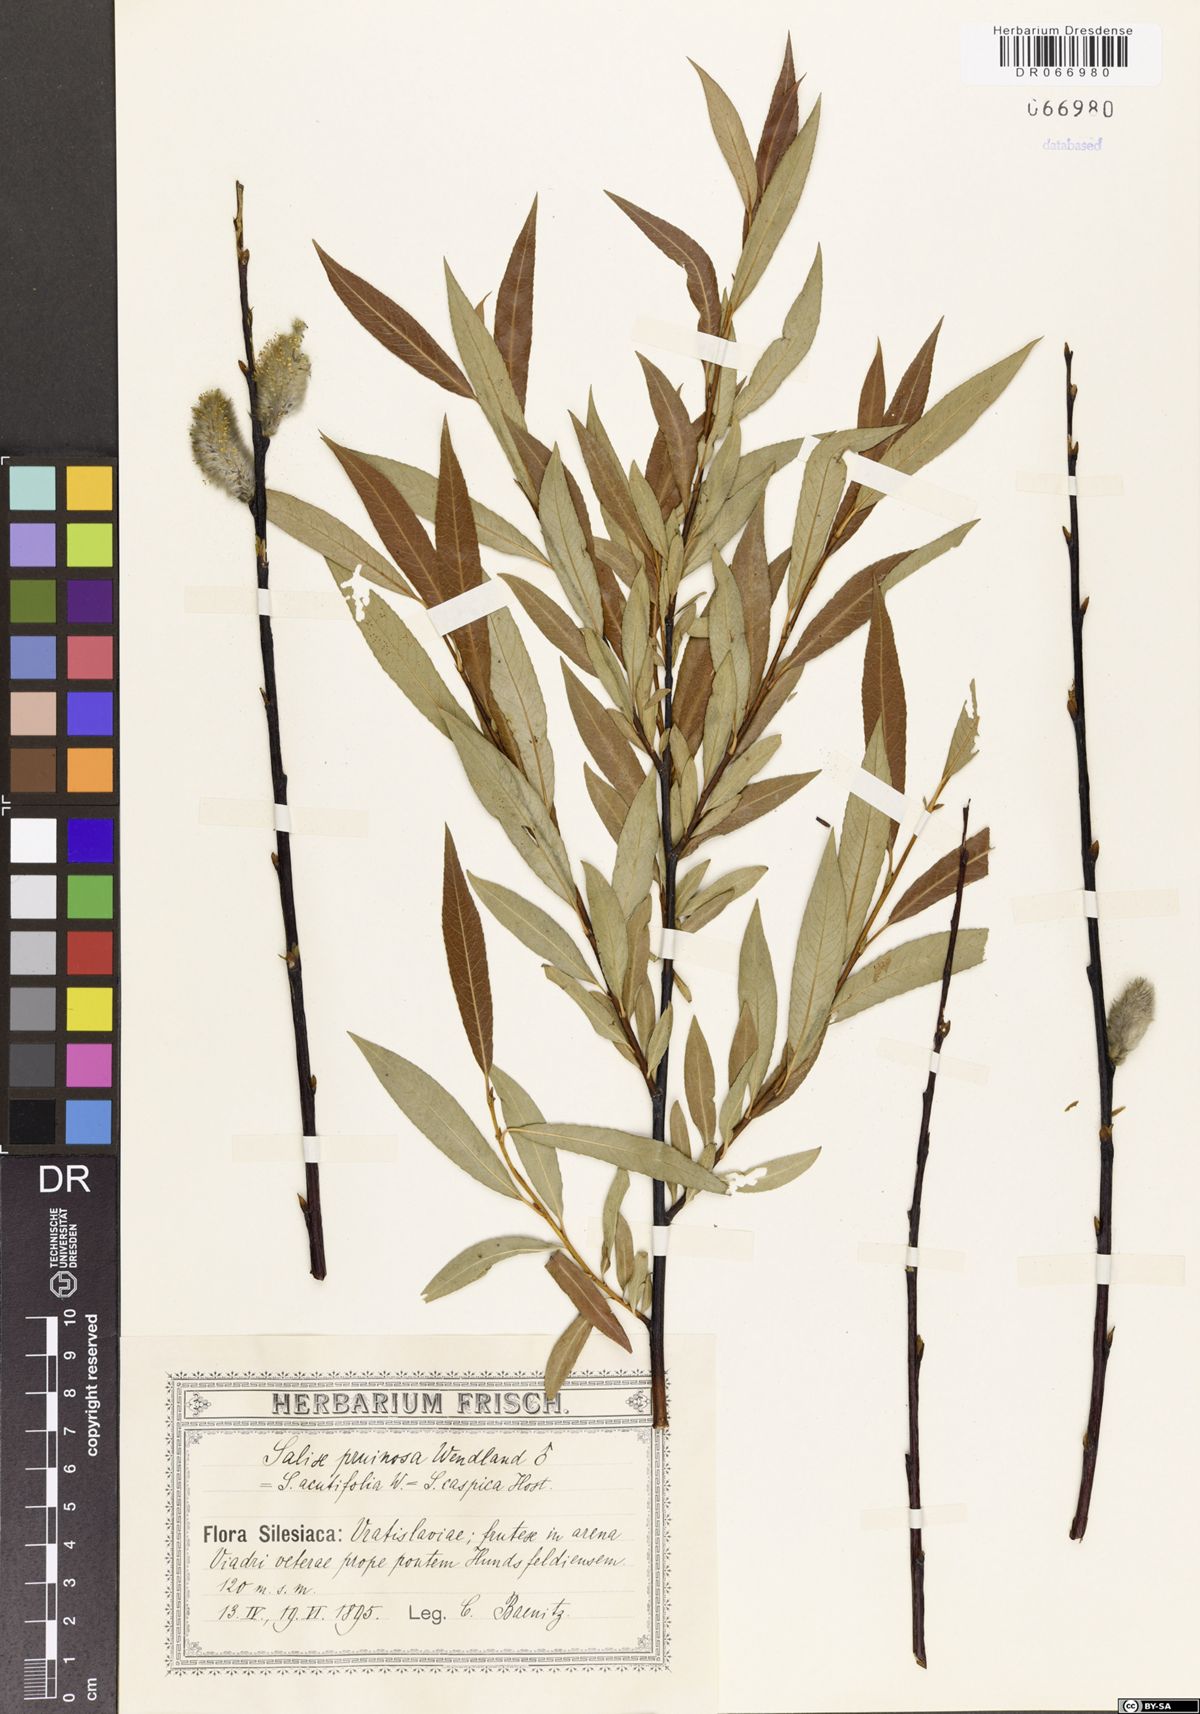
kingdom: Plantae
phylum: Tracheophyta
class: Magnoliopsida
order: Malpighiales
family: Salicaceae
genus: Salix
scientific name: Salix acutifolia
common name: Siberian violet-willow
